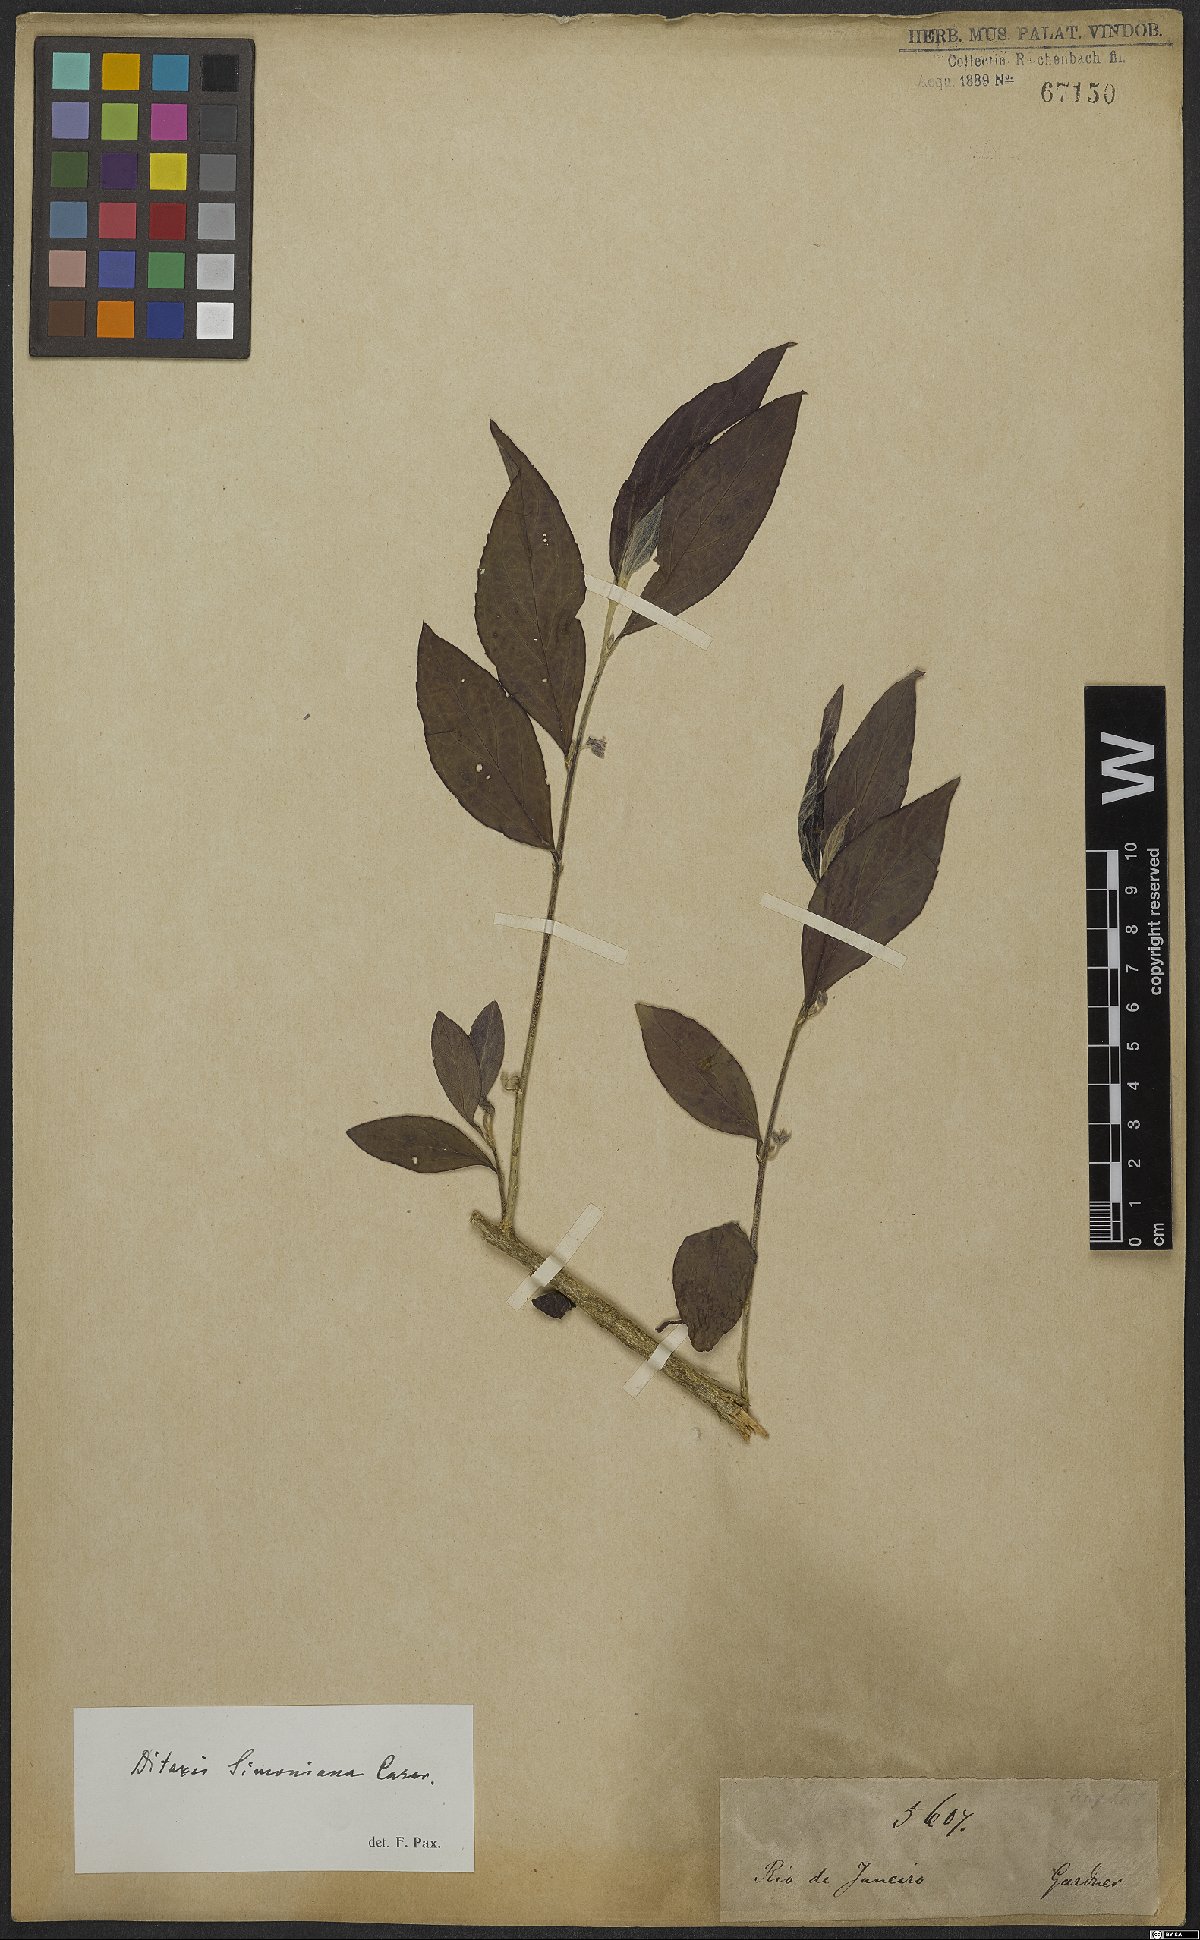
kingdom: Plantae
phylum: Tracheophyta
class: Magnoliopsida
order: Malpighiales
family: Euphorbiaceae
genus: Ditaxis
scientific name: Ditaxis simoniana
